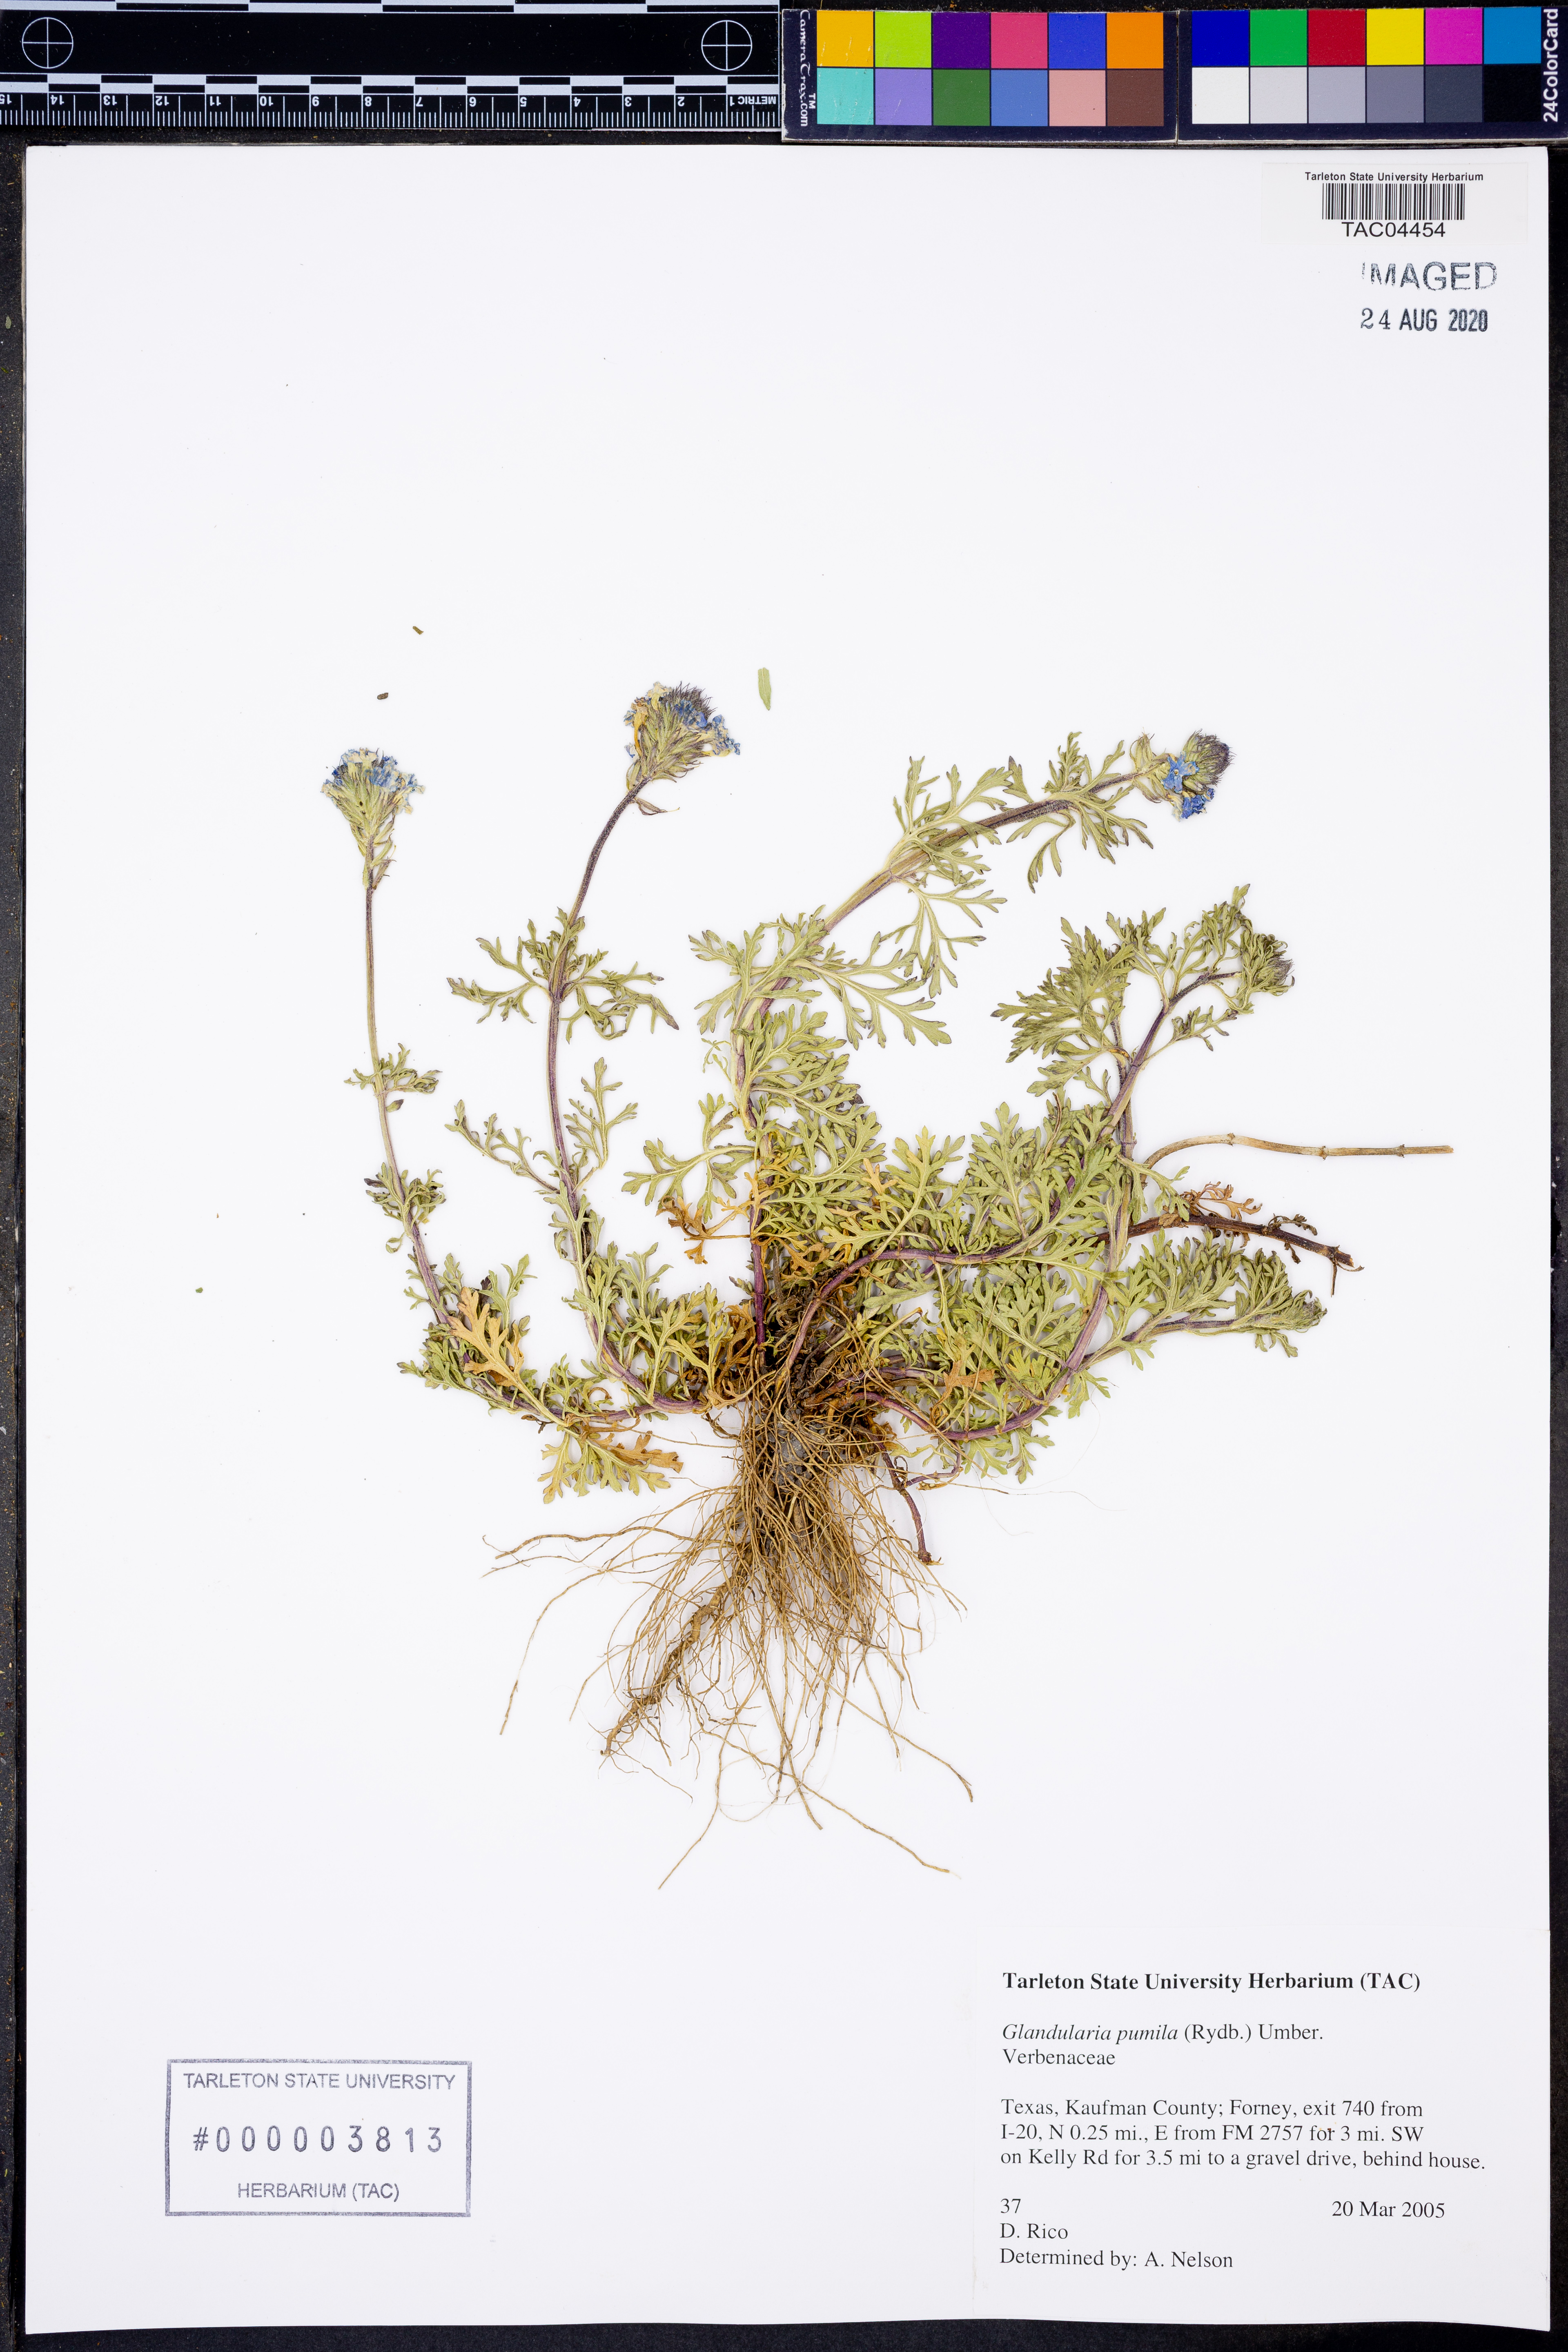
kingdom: Plantae
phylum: Tracheophyta
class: Magnoliopsida
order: Lamiales
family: Verbenaceae
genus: Verbena
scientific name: Verbena pumila
